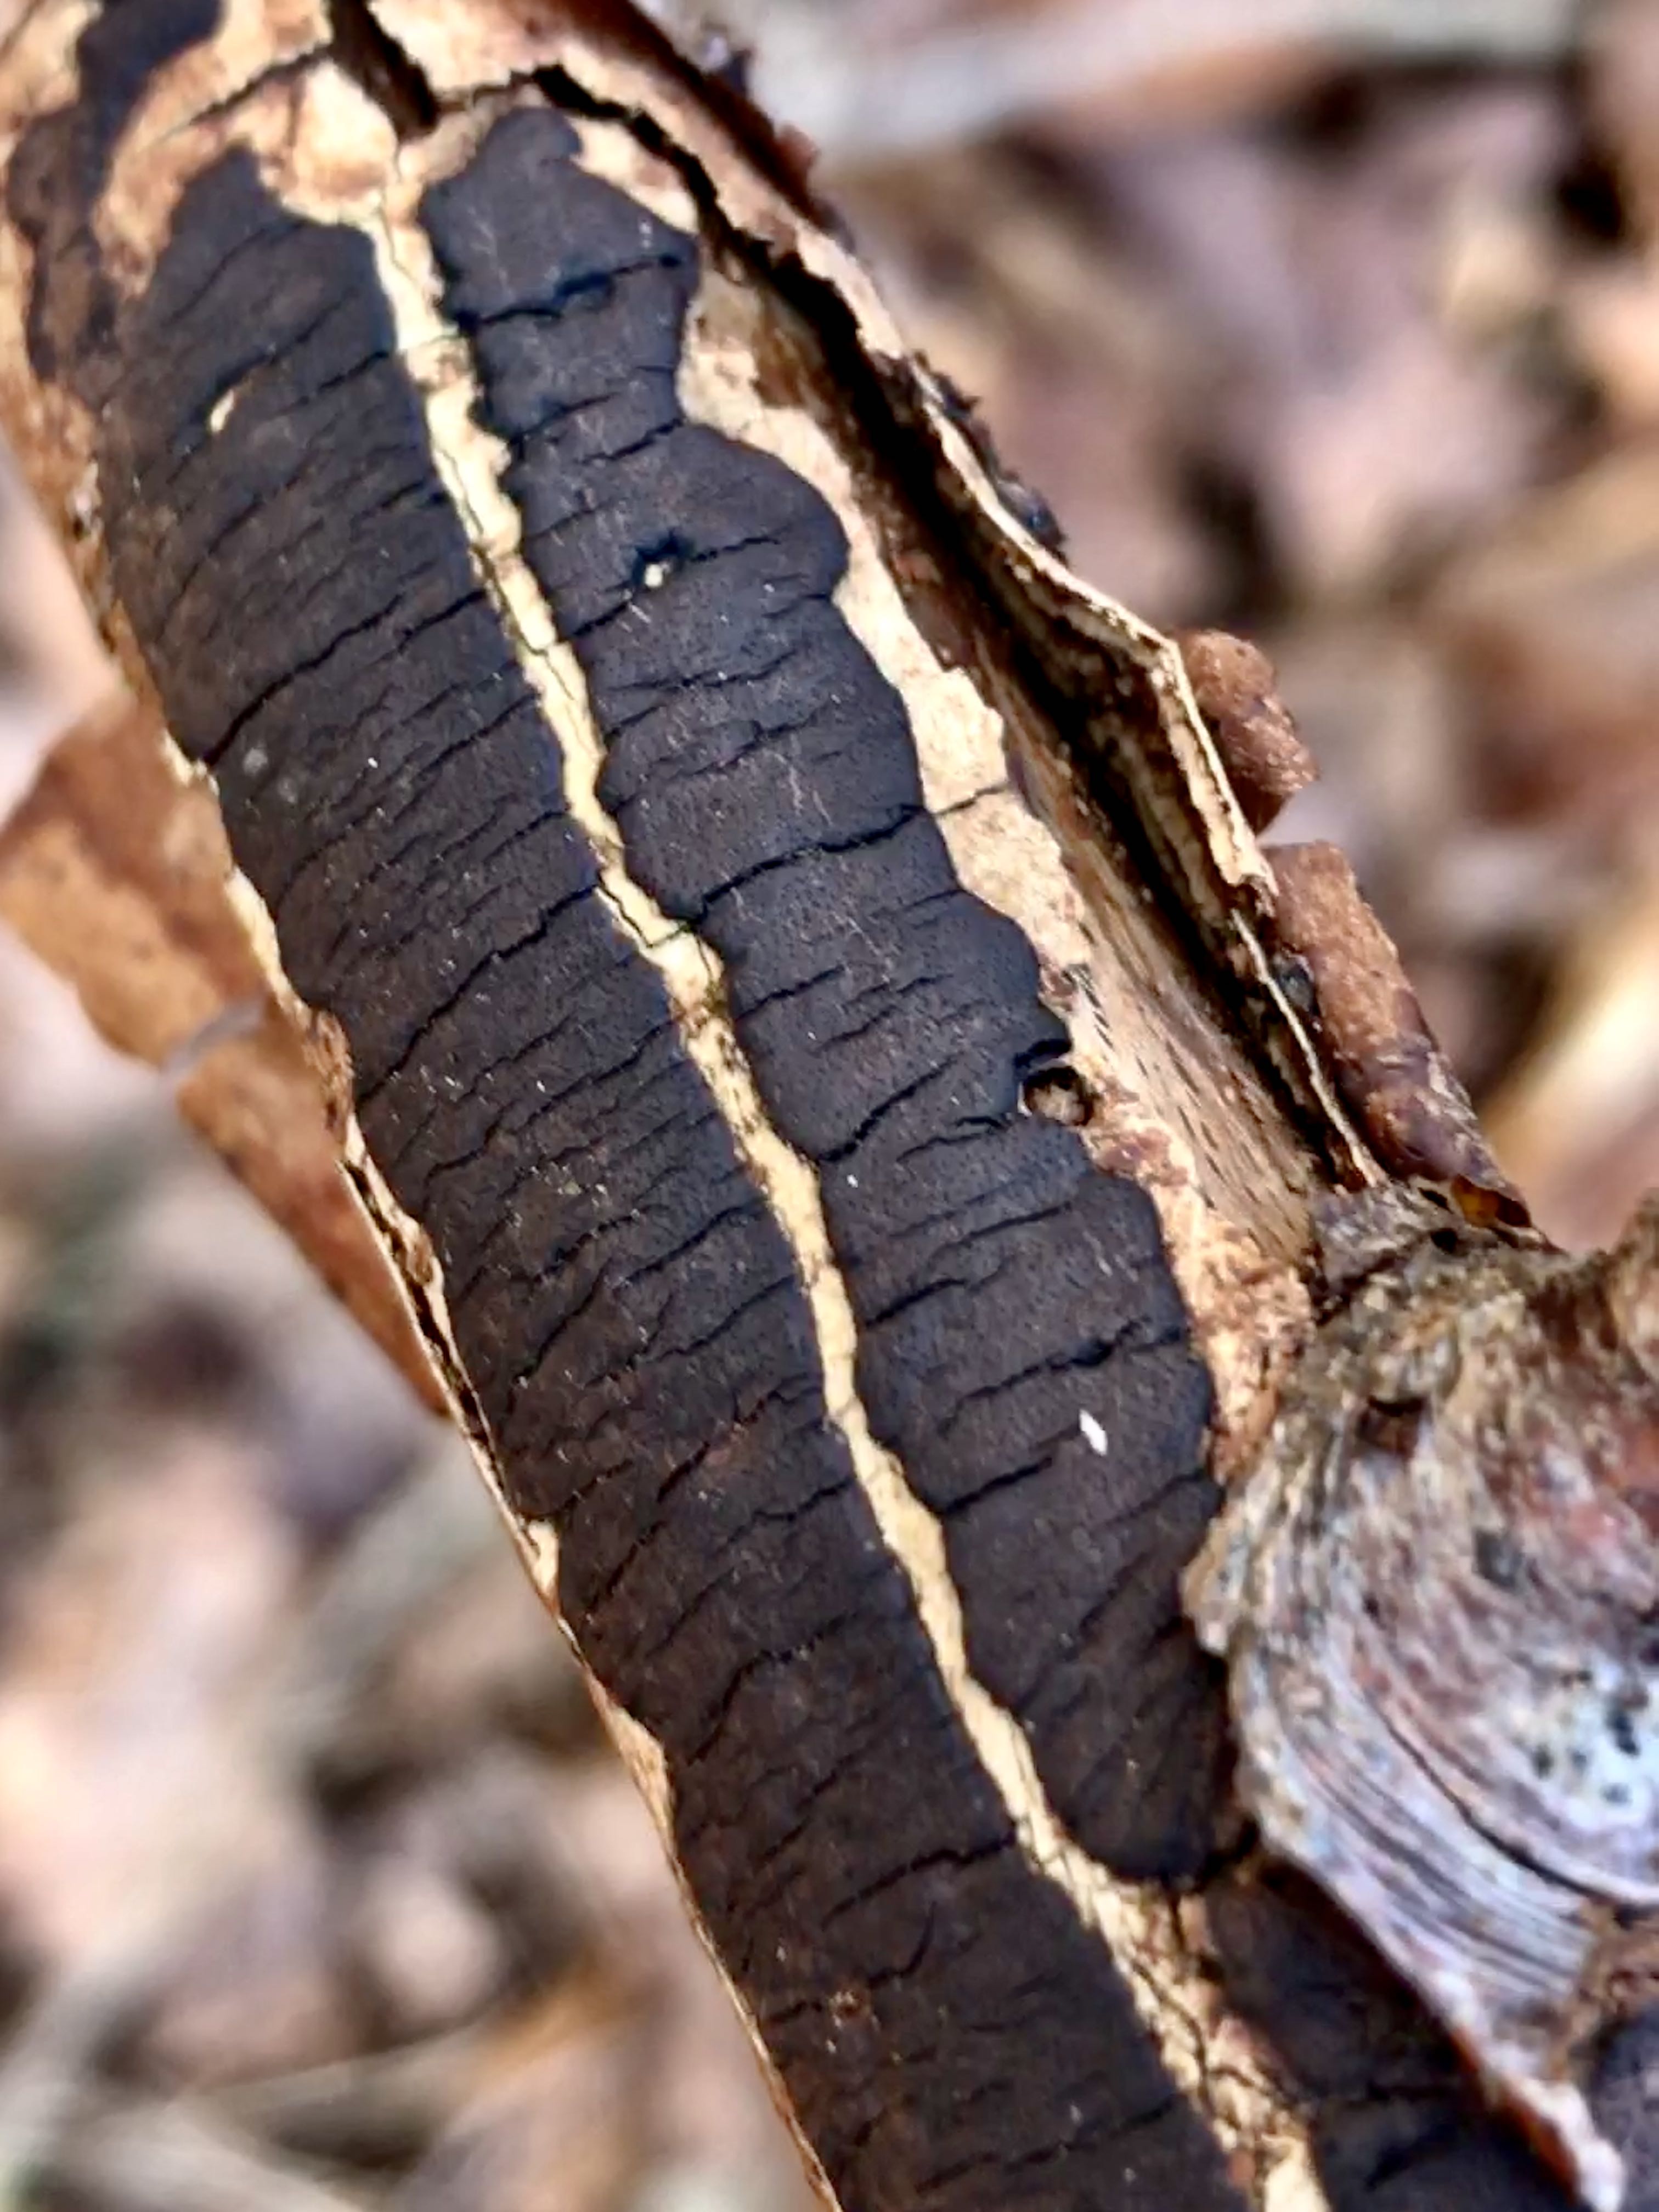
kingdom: Fungi
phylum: Ascomycota
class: Sordariomycetes
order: Xylariales
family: Diatrypaceae
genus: Diatrype
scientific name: Diatrype decorticata
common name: barksprænger-kulskorpe
